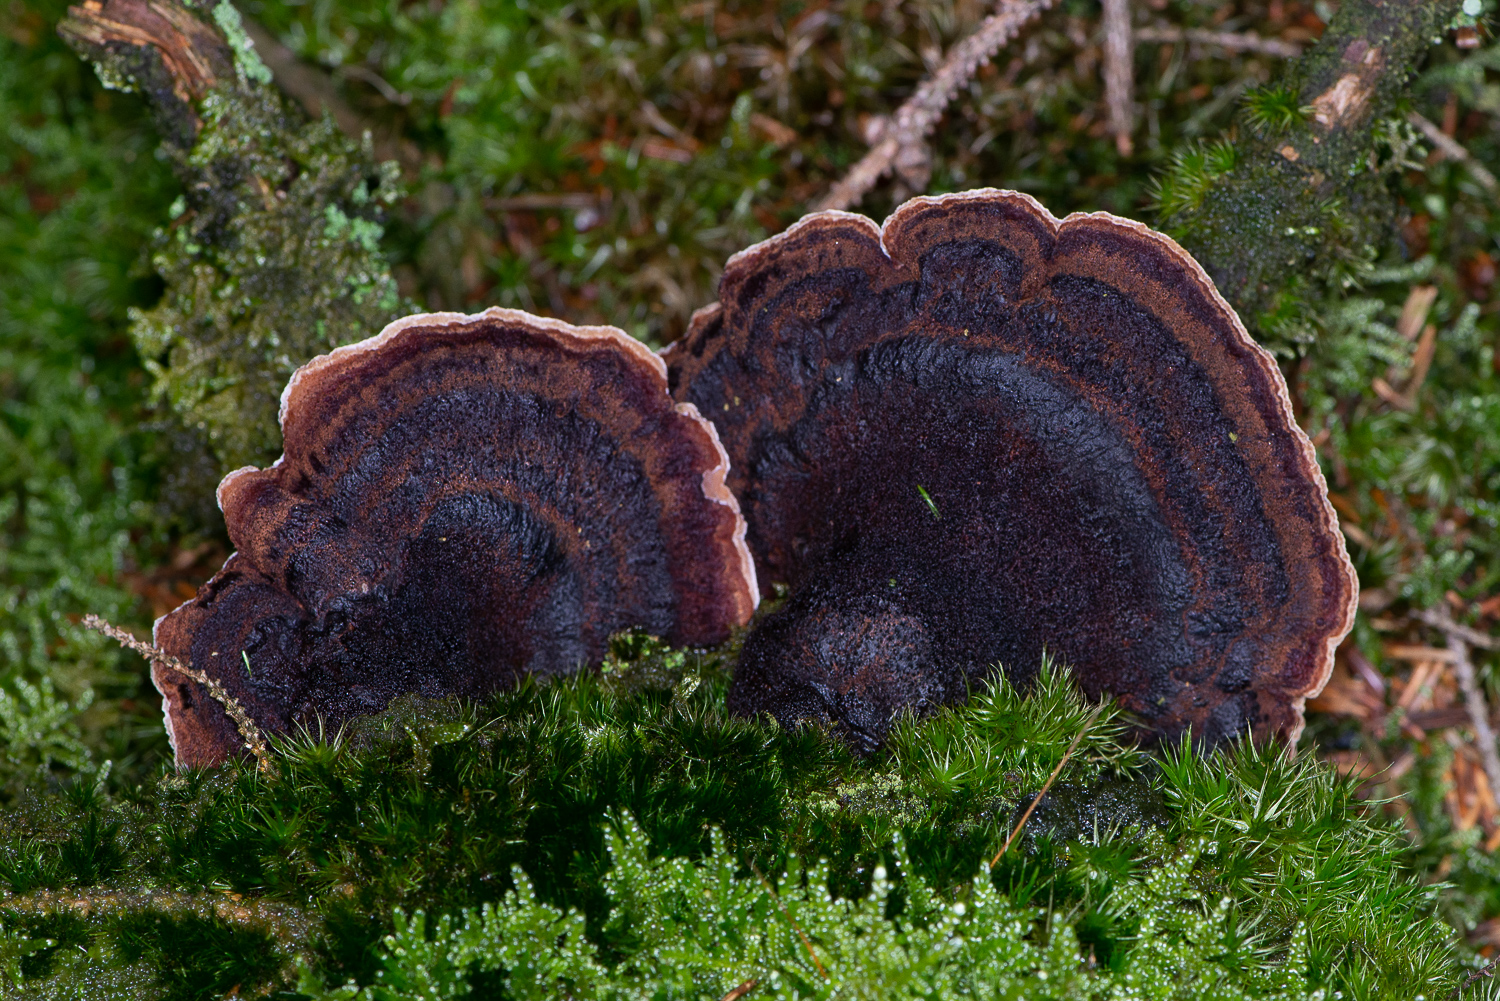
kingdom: Fungi
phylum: Basidiomycota
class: Agaricomycetes
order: Polyporales
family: Ischnodermataceae
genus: Ischnoderma
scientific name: Ischnoderma benzoinum
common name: gran-tjæreporesvamp
